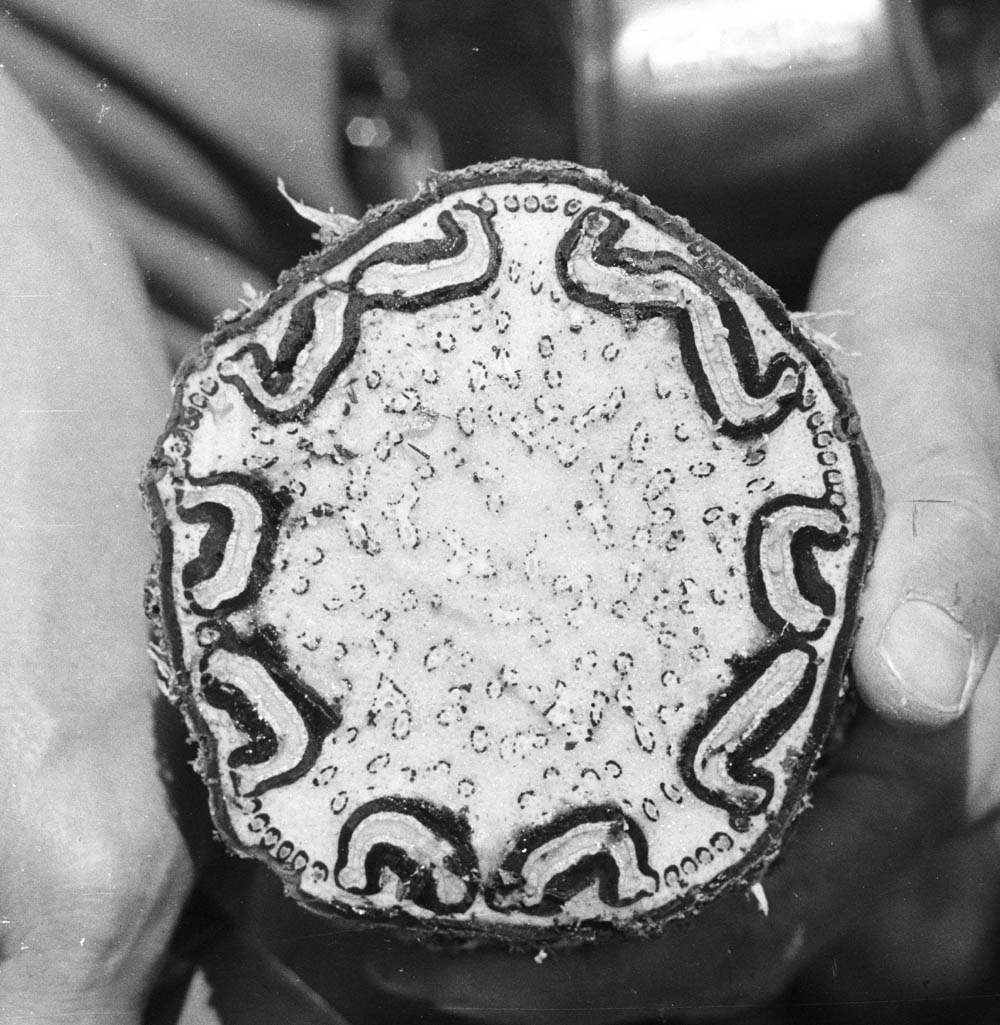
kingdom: Plantae
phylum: Tracheophyta
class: Polypodiopsida
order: Cyatheales
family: Cyatheaceae
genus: Cyathea
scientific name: Cyathea atahuallpa
